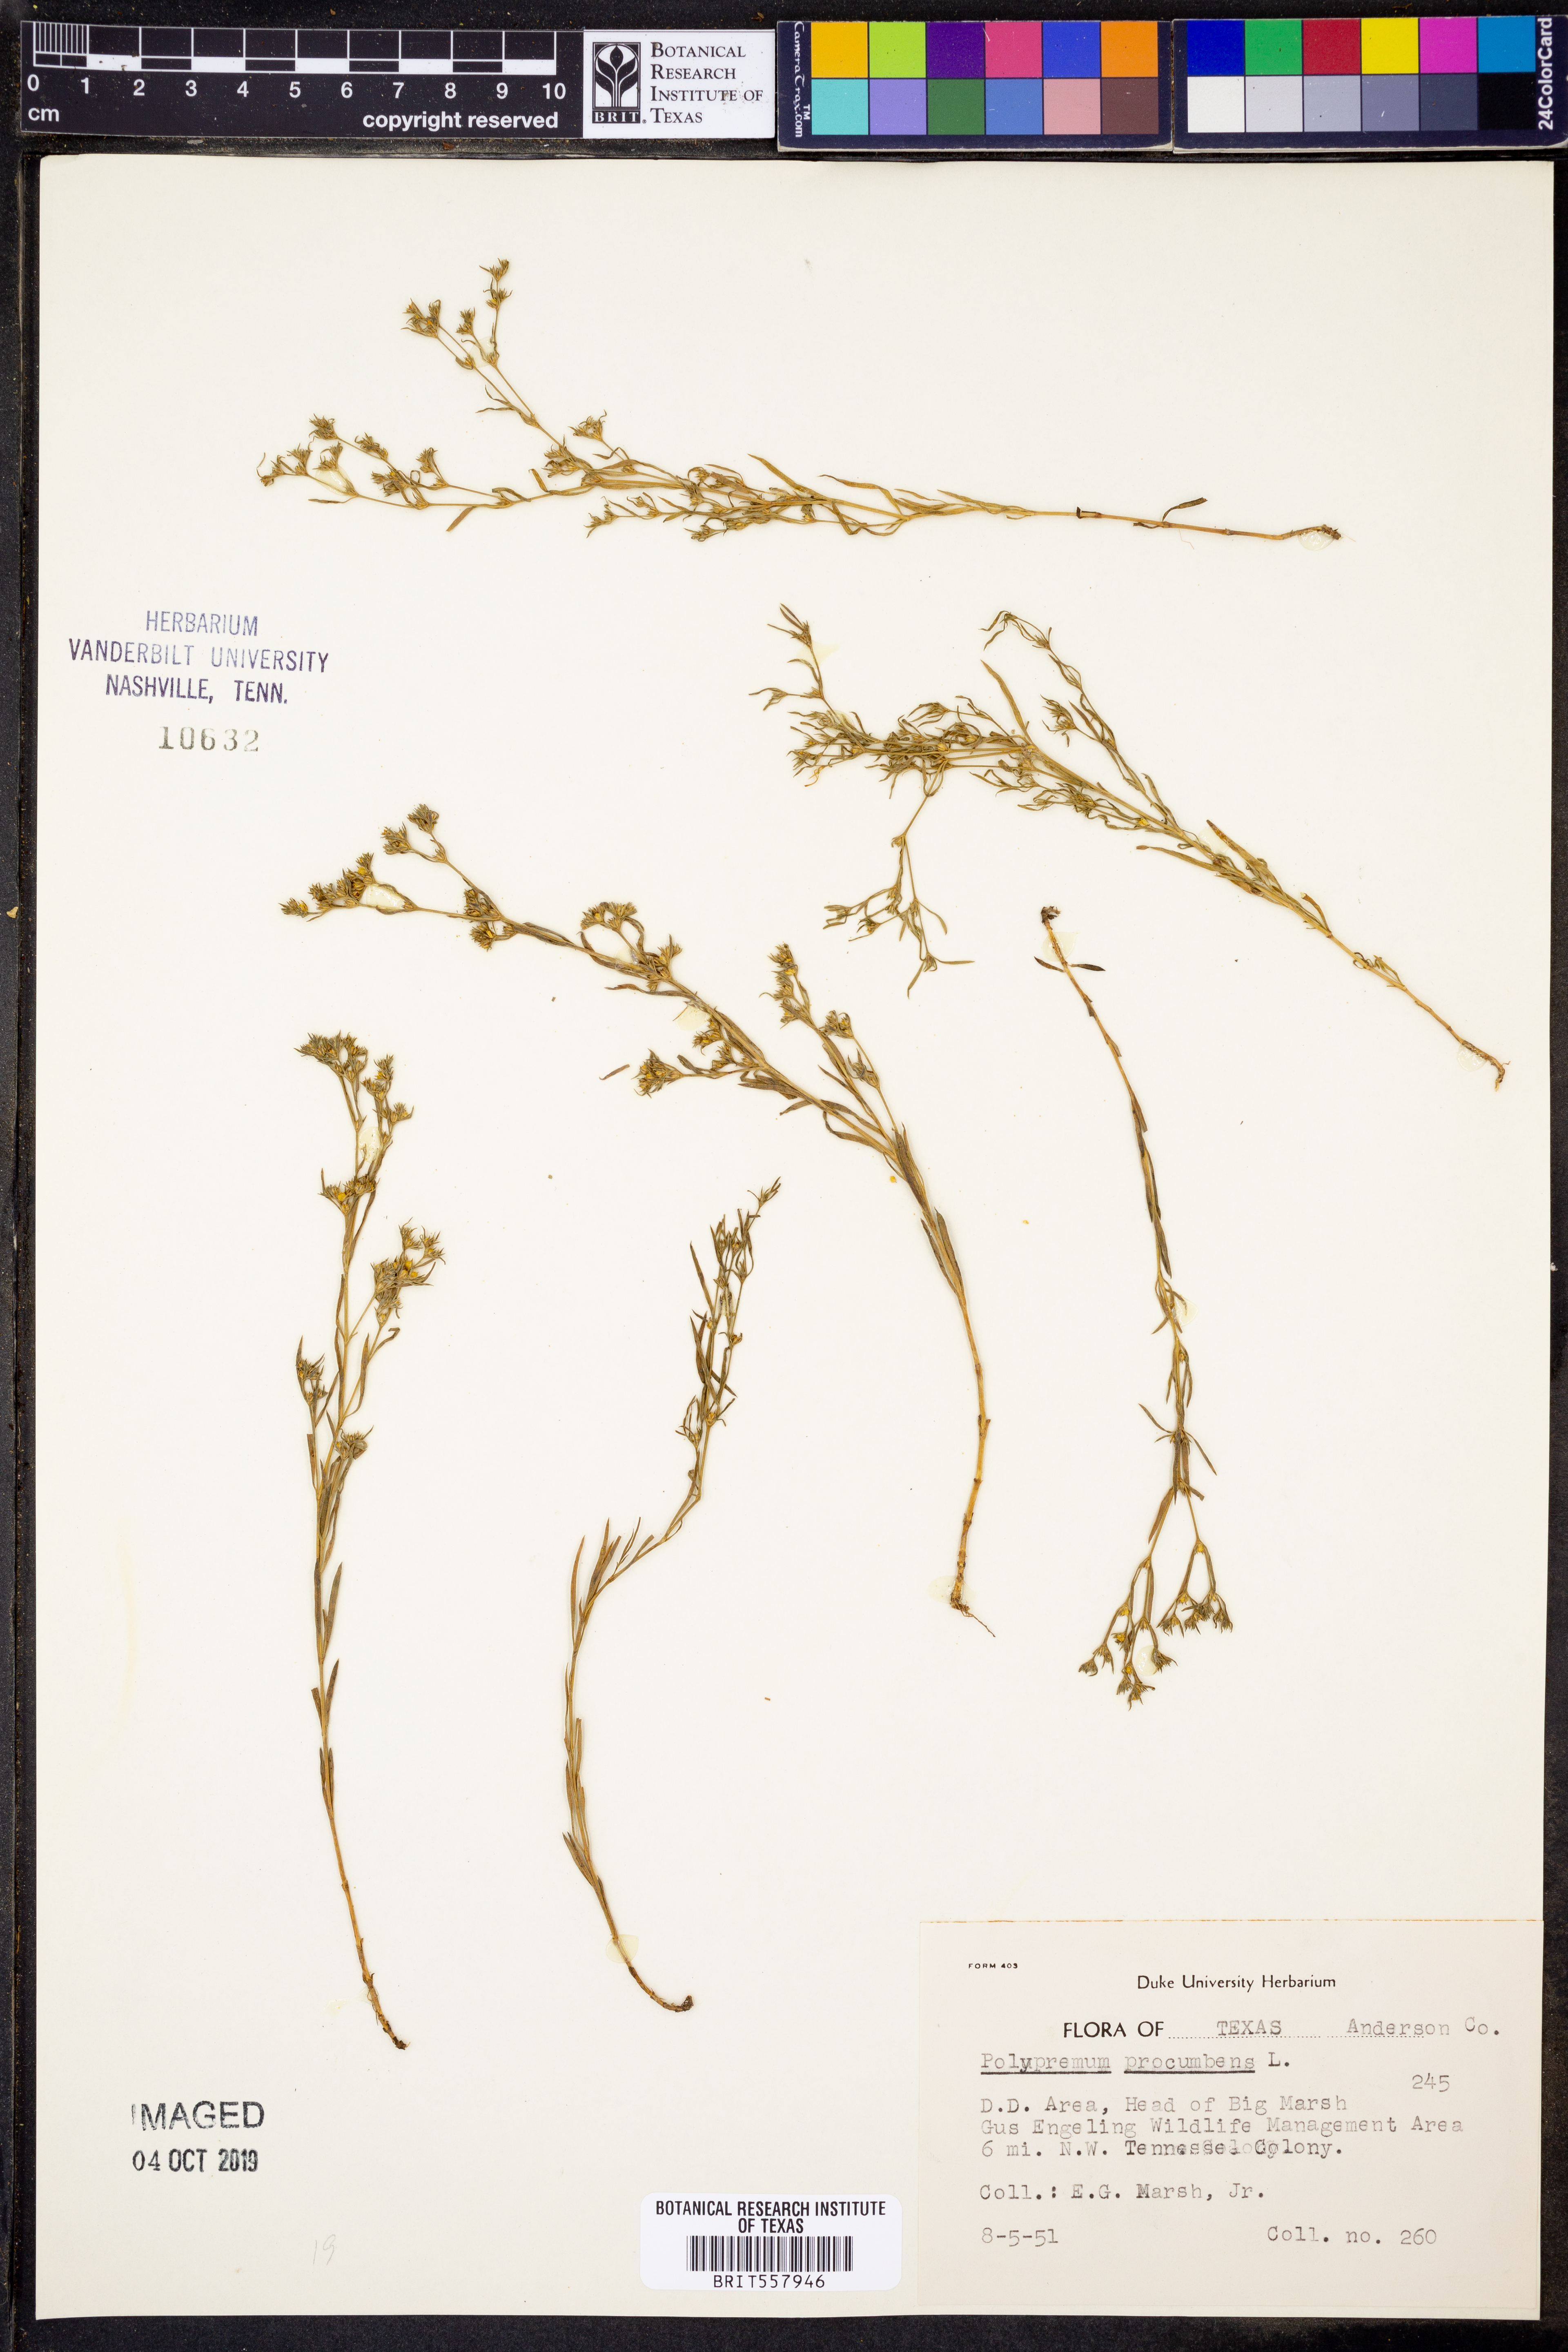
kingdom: Plantae
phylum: Tracheophyta
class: Magnoliopsida
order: Lamiales
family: Tetrachondraceae
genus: Polypremum
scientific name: Polypremum procumbens
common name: Juniper-leaf
